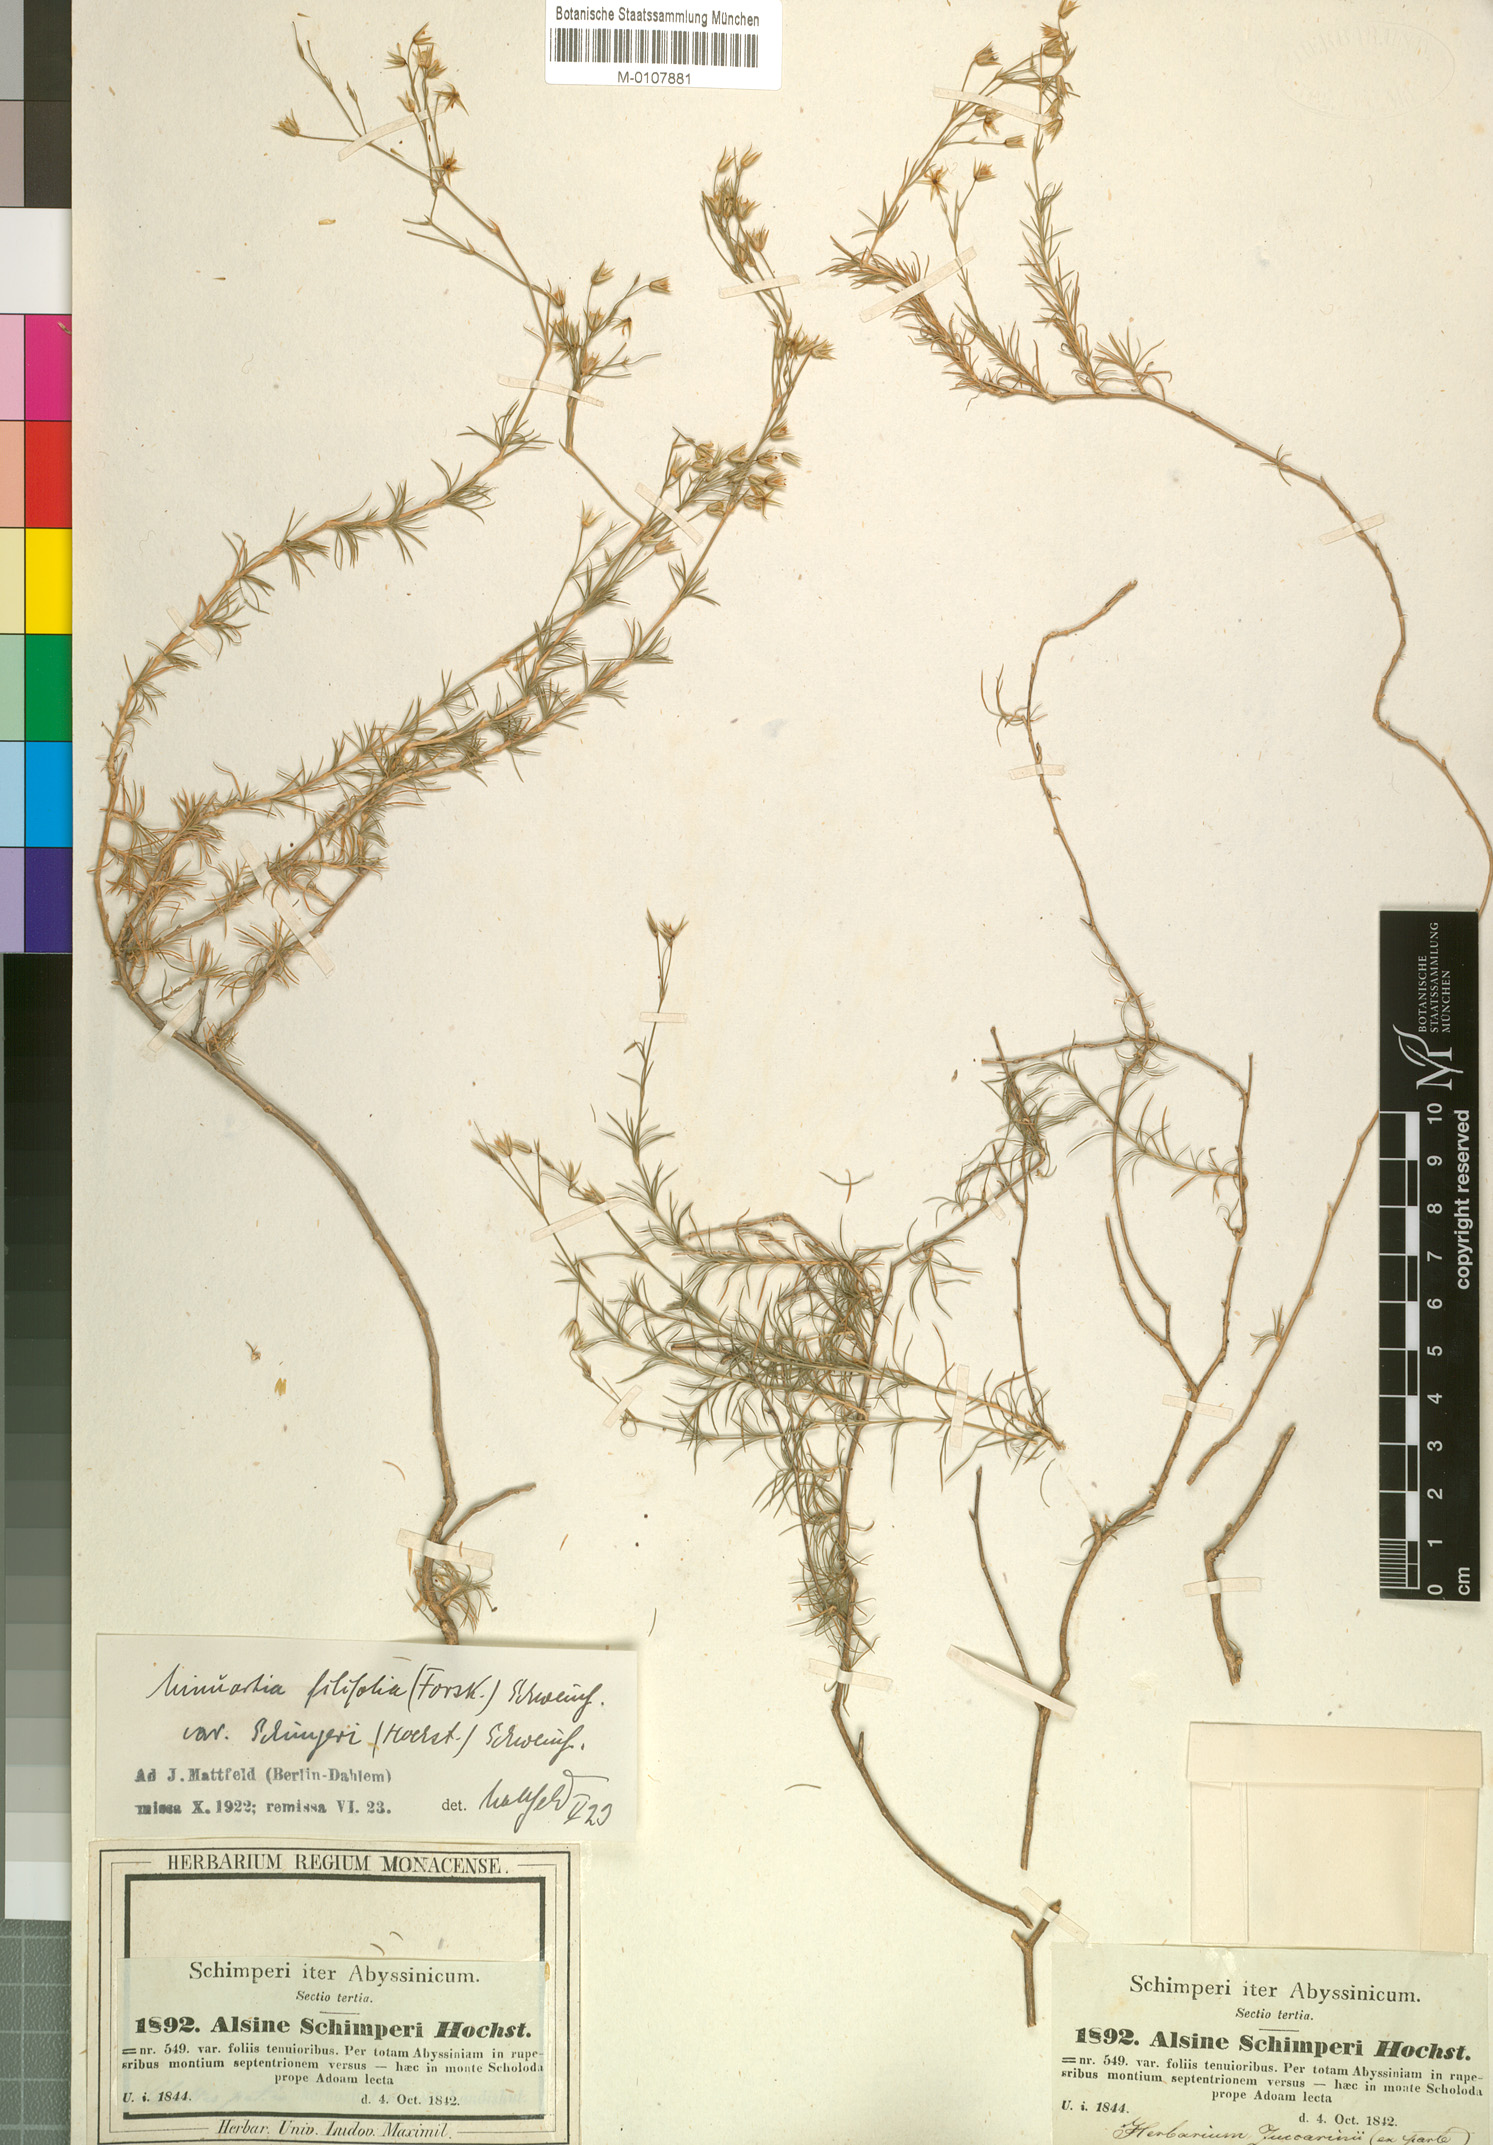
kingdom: Plantae
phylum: Tracheophyta
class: Magnoliopsida
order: Caryophyllales
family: Caryophyllaceae
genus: Minuartia
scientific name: Minuartia filifolia
